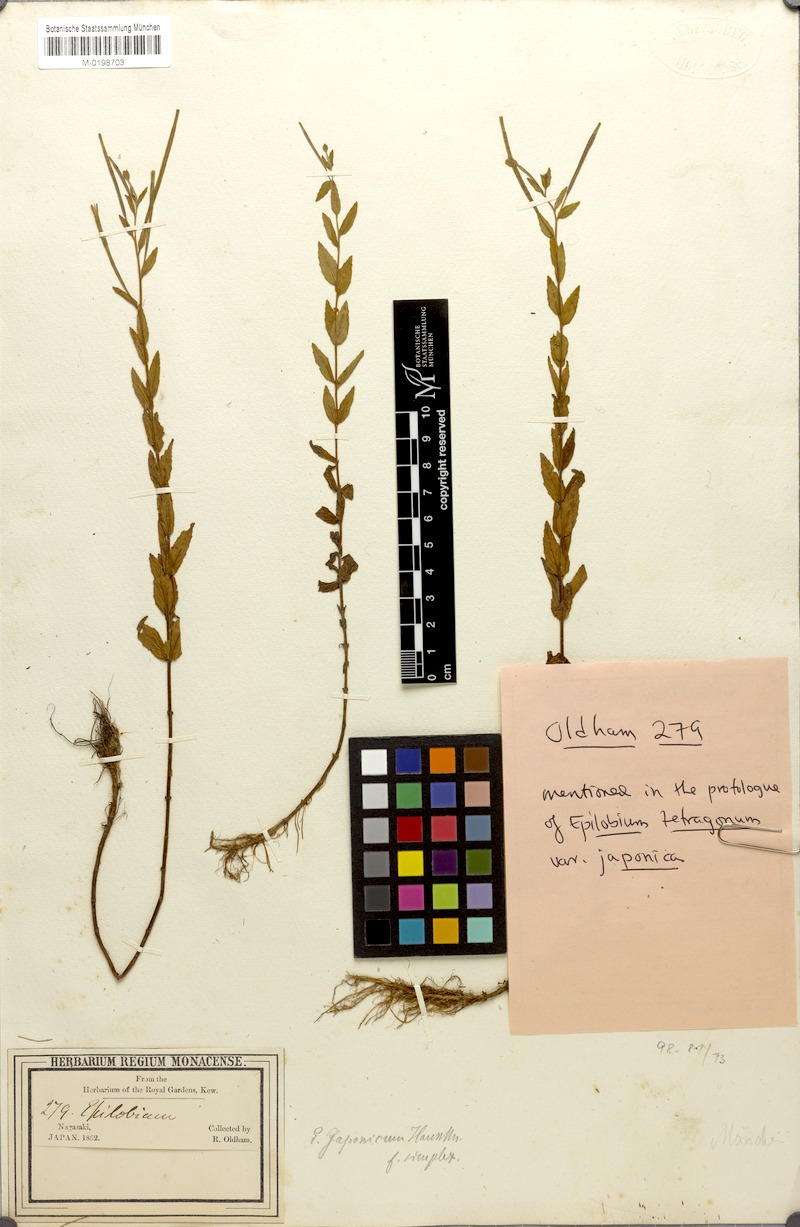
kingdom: Plantae
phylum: Tracheophyta
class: Magnoliopsida
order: Myrtales
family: Onagraceae
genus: Epilobium
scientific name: Epilobium pyrricholophum
